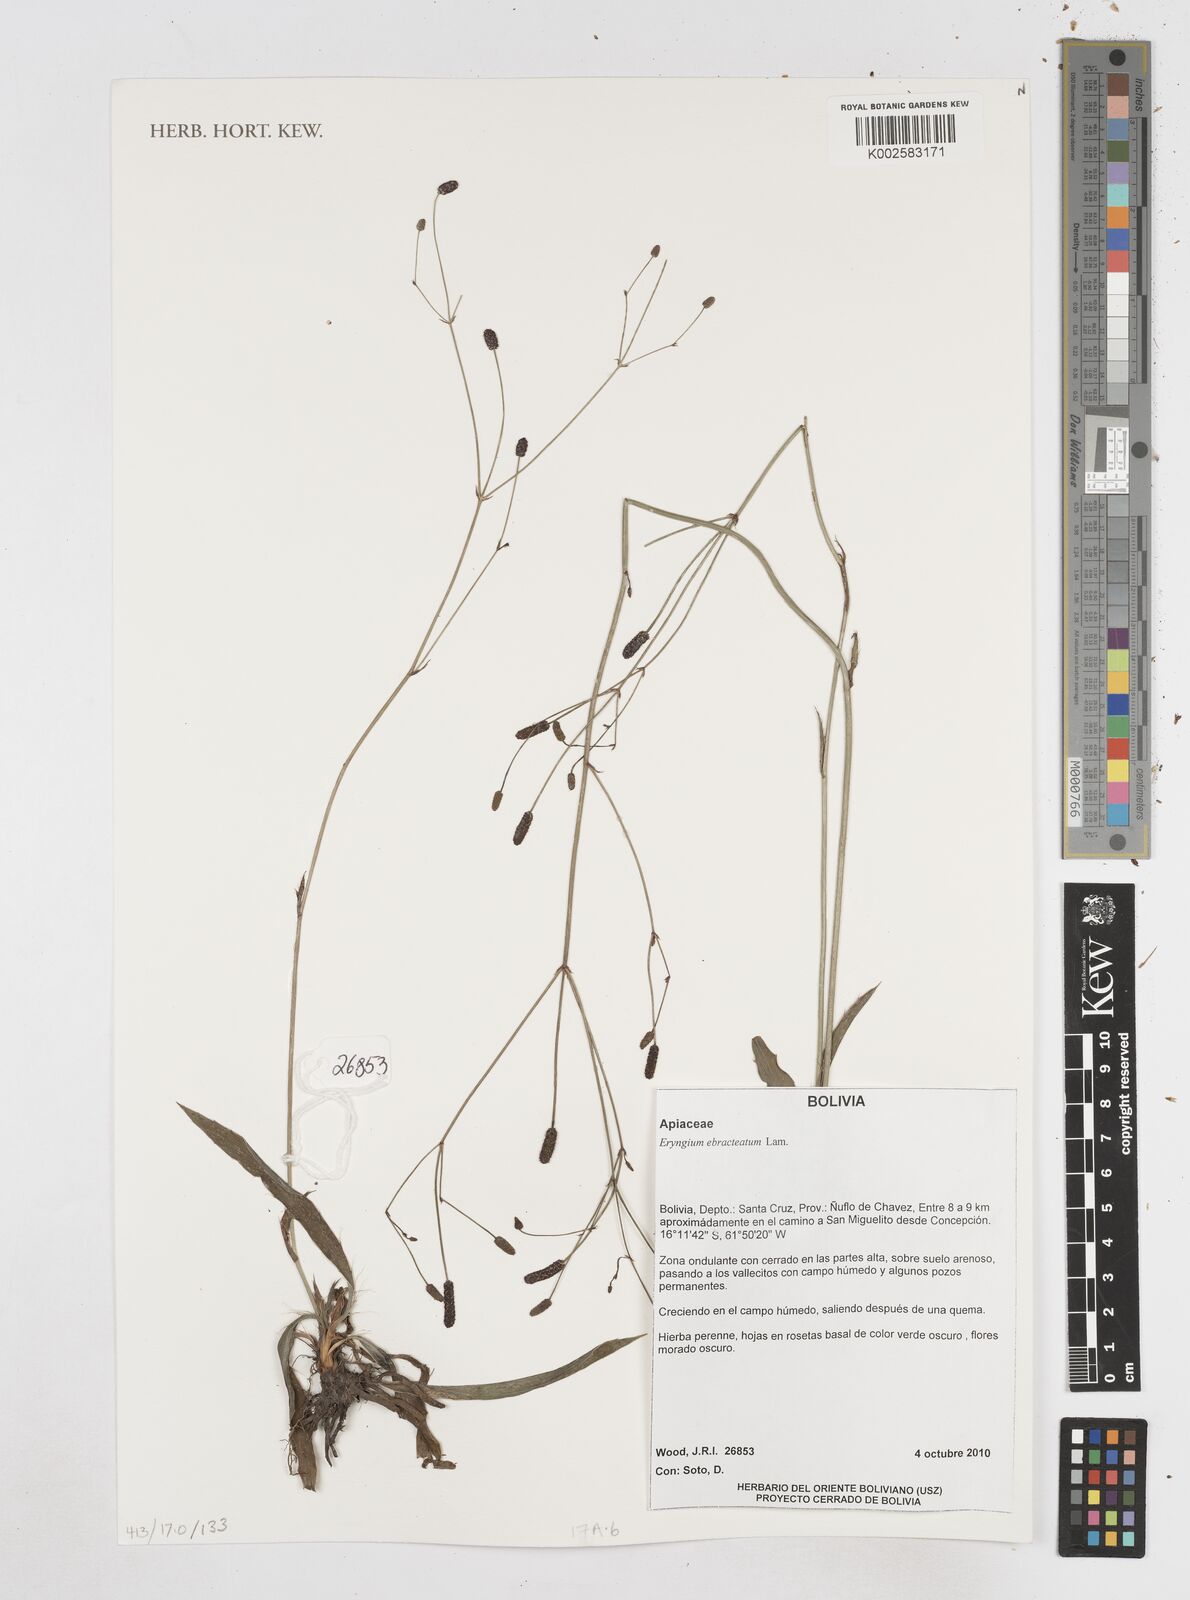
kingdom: Plantae
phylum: Tracheophyta
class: Magnoliopsida
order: Apiales
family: Apiaceae
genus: Eryngium
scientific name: Eryngium ebracteatum
